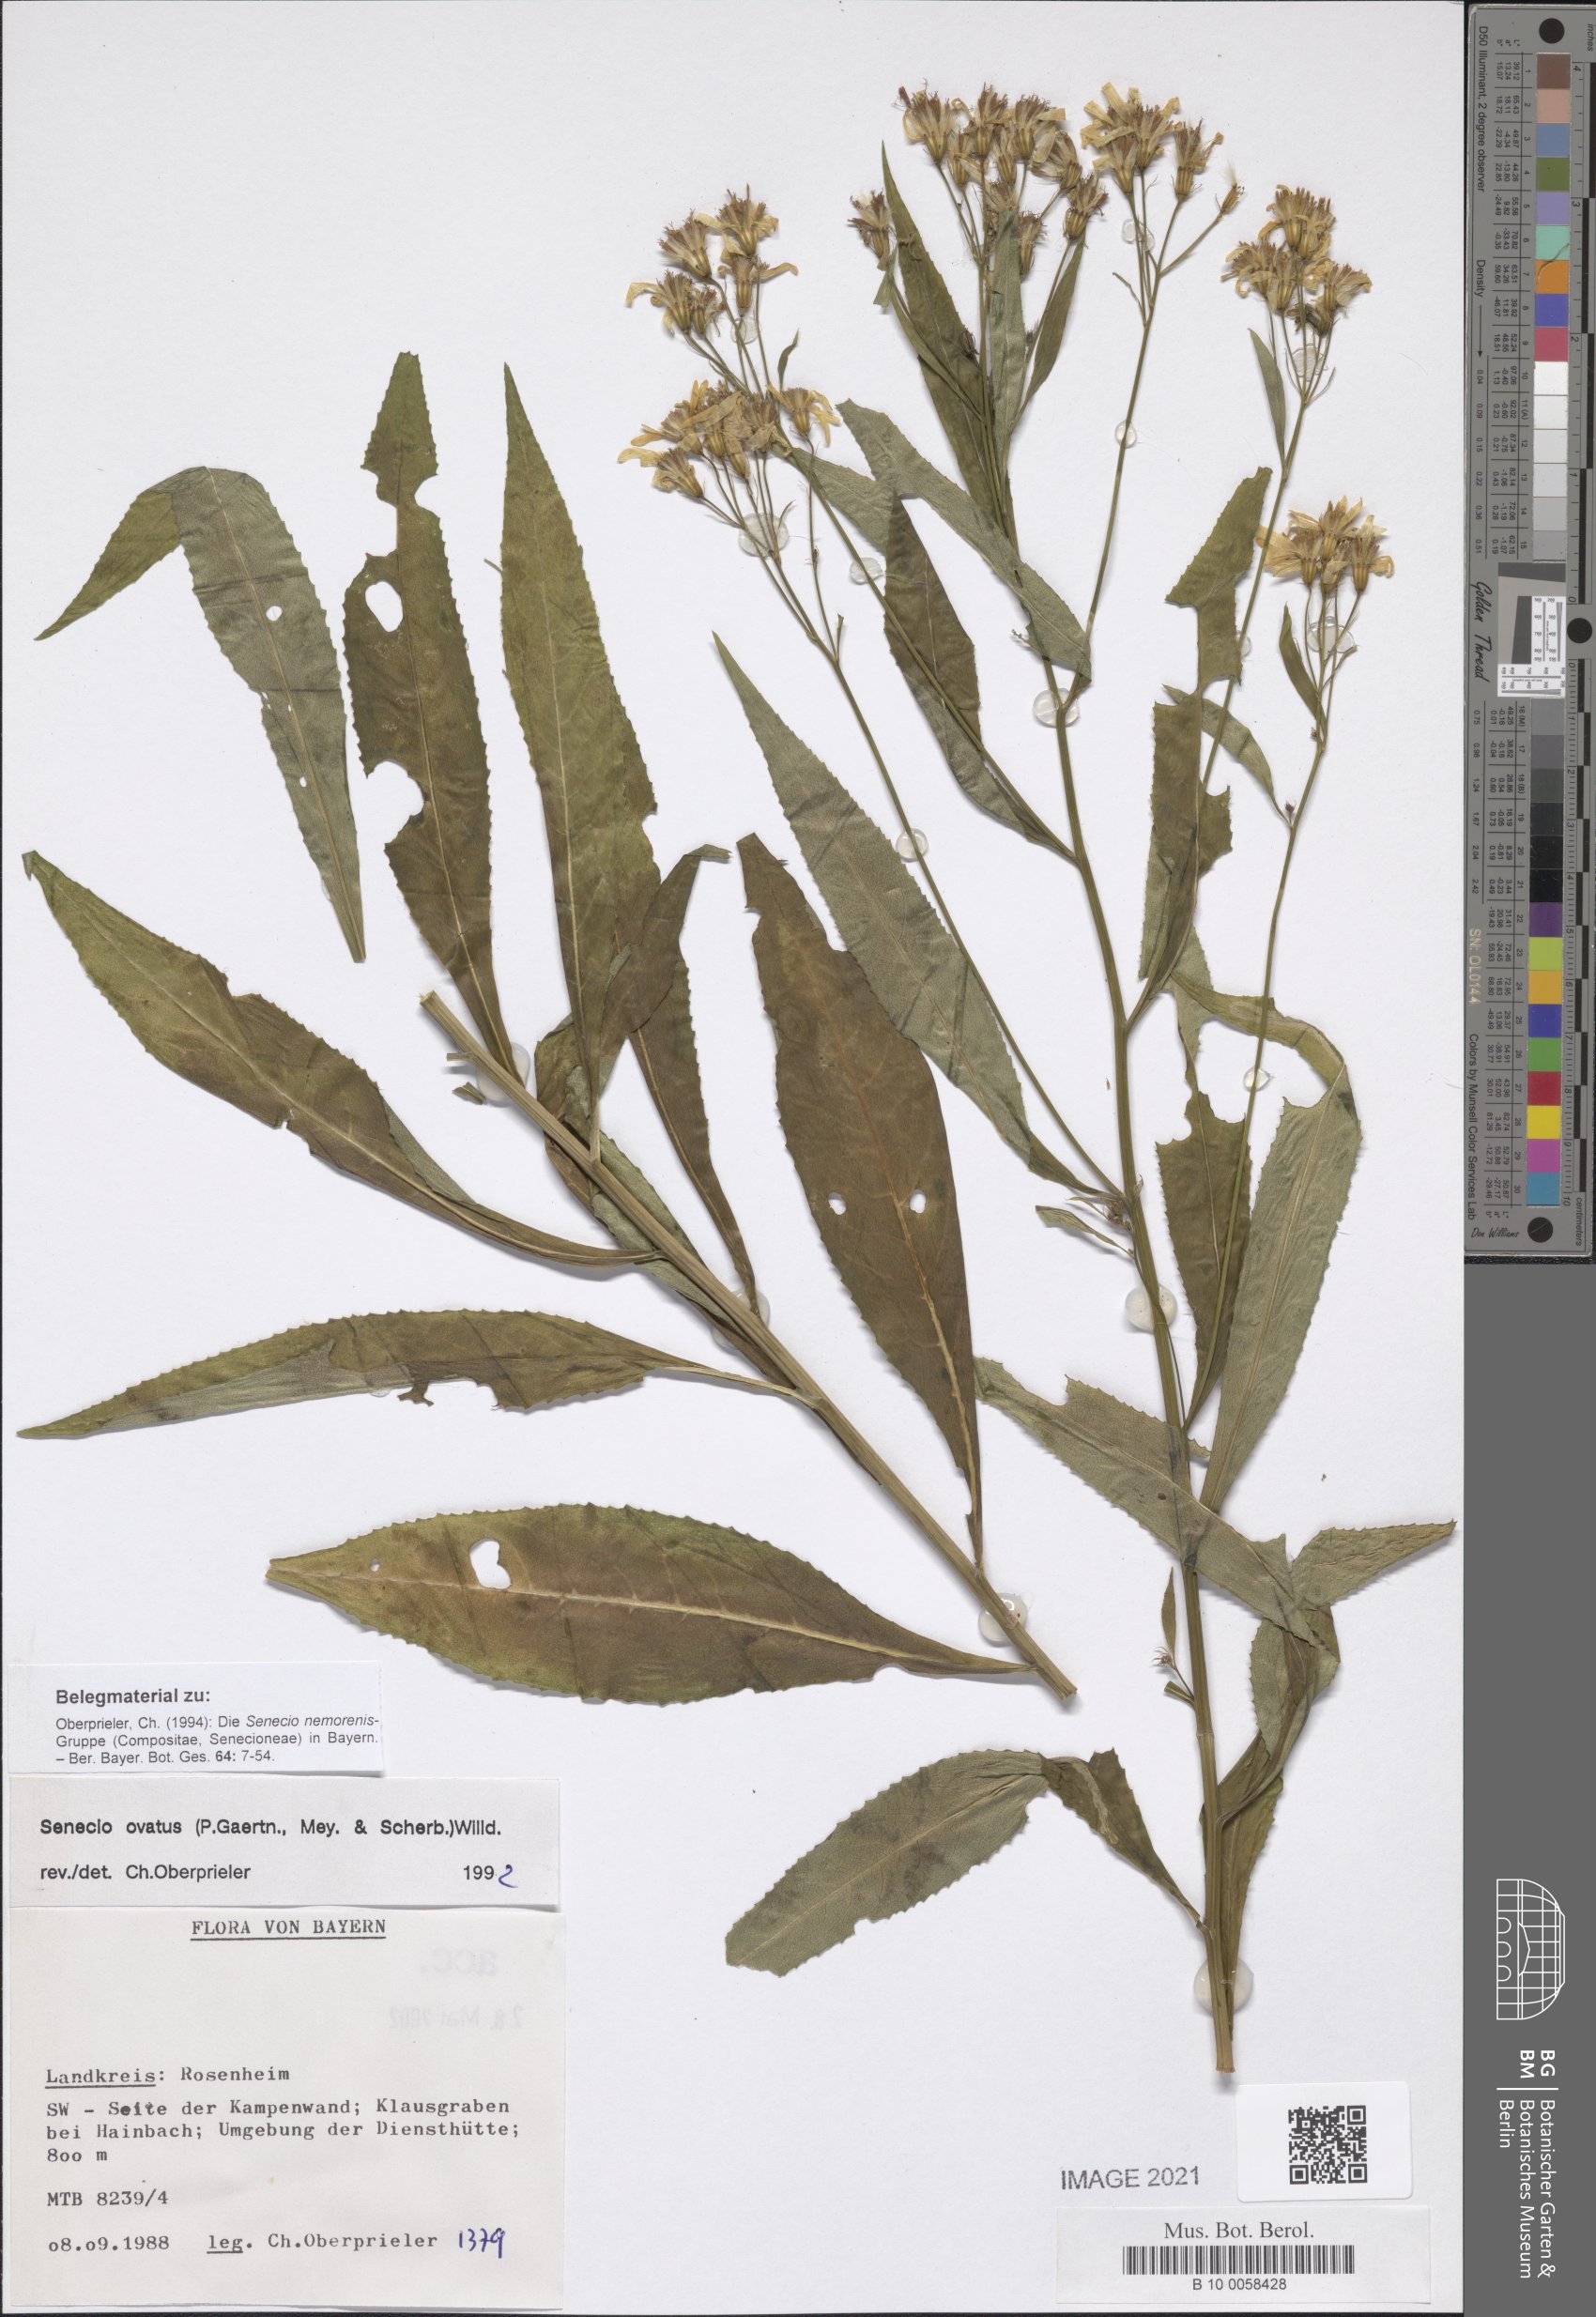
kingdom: Plantae
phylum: Tracheophyta
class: Magnoliopsida
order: Asterales
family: Asteraceae
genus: Senecio
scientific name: Senecio ovatus
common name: Wood ragwort
